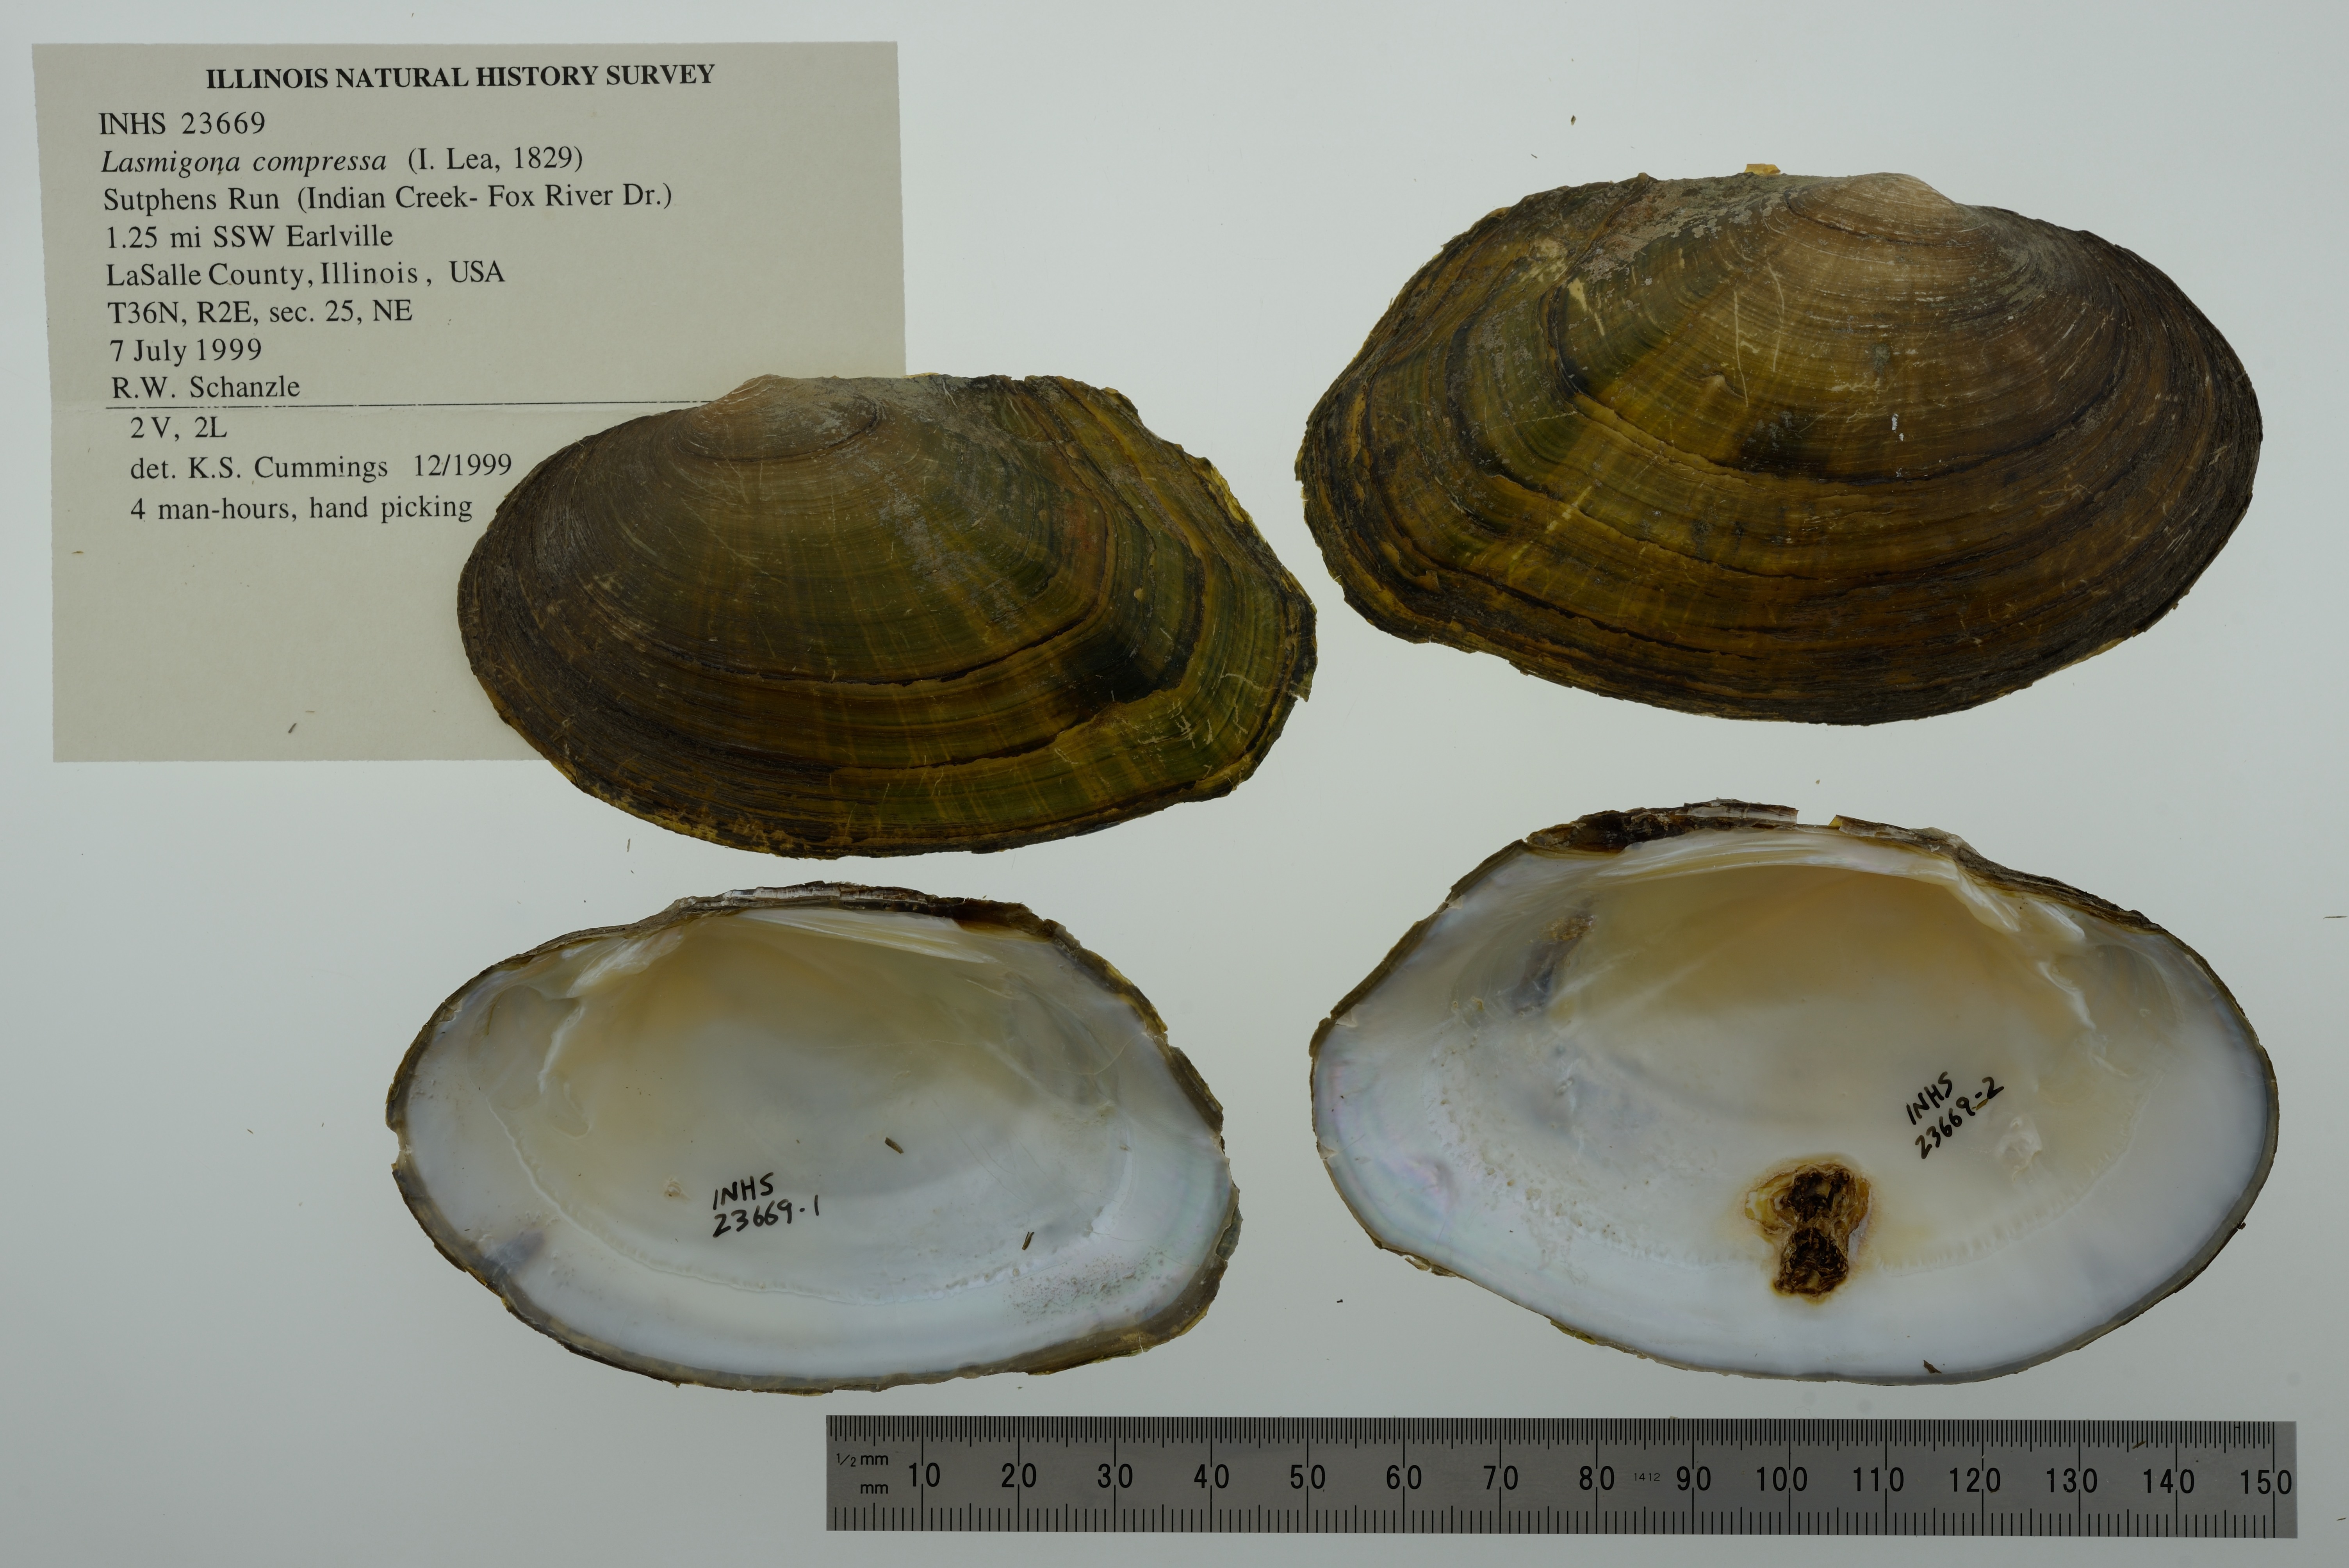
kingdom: Animalia
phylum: Mollusca
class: Bivalvia
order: Unionida
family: Unionidae
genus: Lasmigona
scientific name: Lasmigona compressa
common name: Creek heelsplitter
